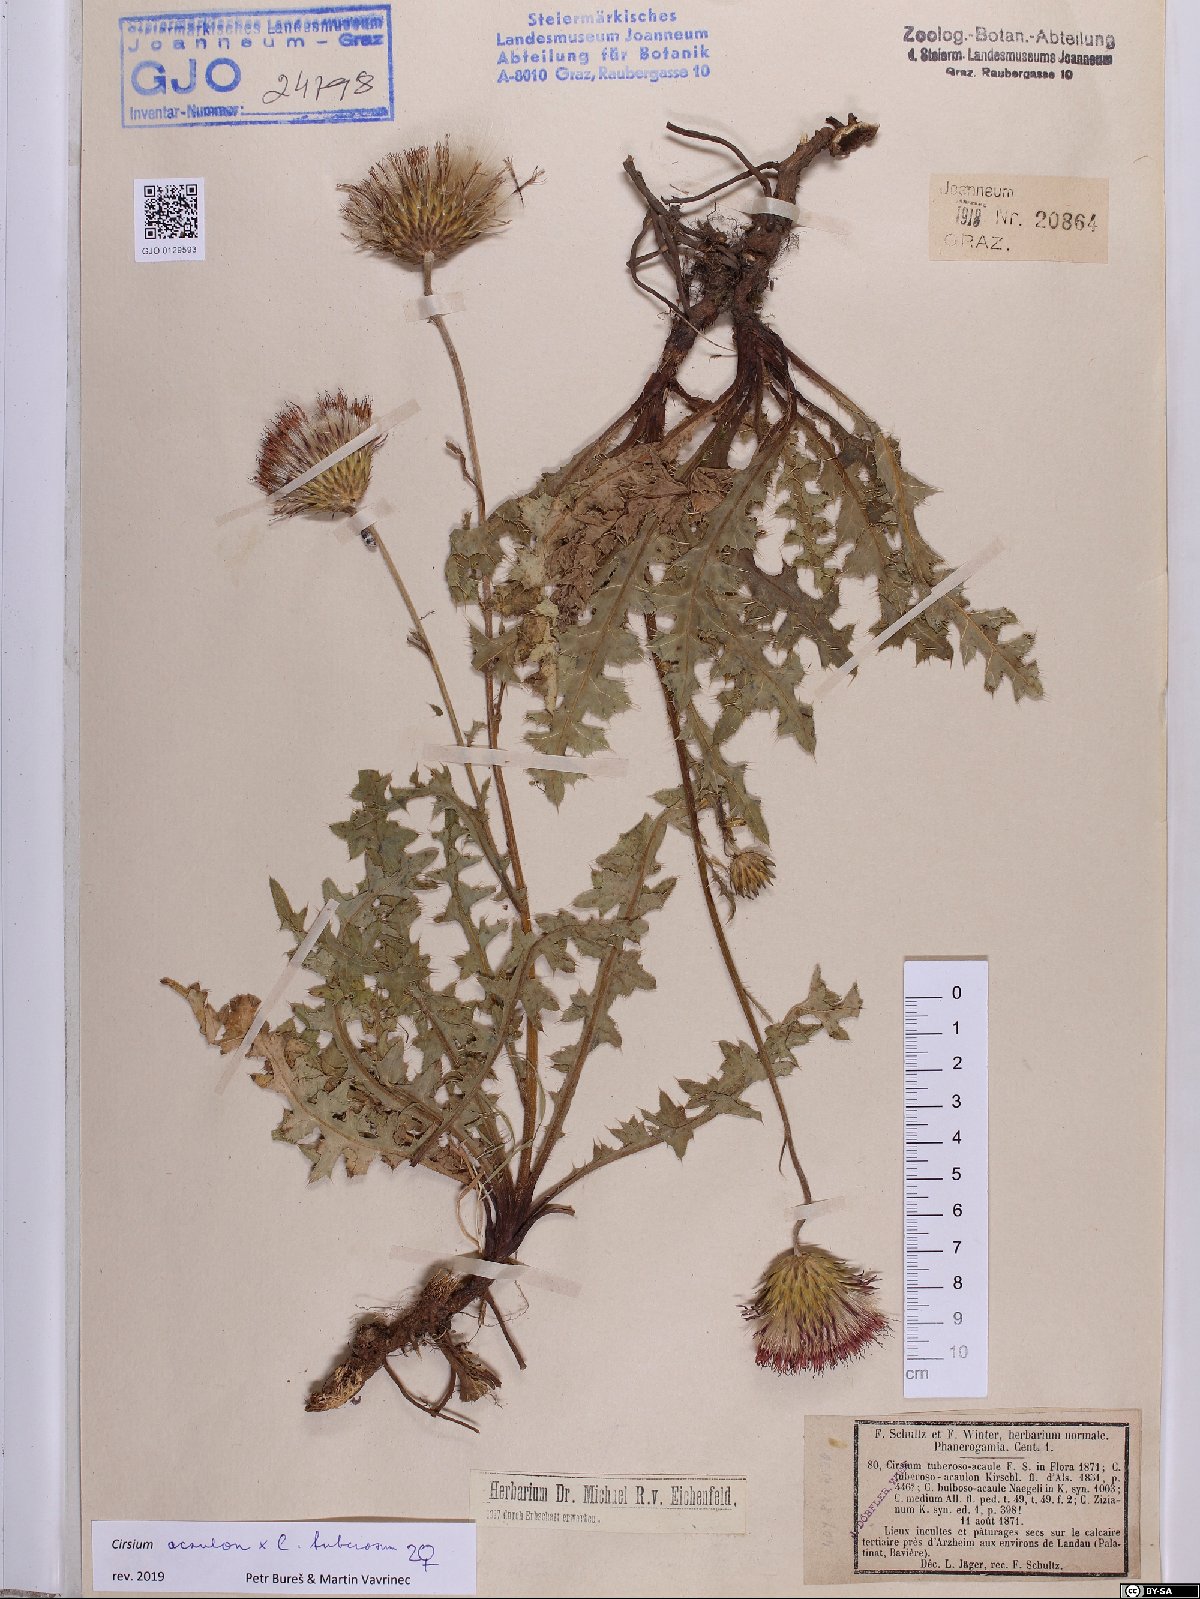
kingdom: Plantae
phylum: Tracheophyta
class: Magnoliopsida
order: Asterales
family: Asteraceae
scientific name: Asteraceae
